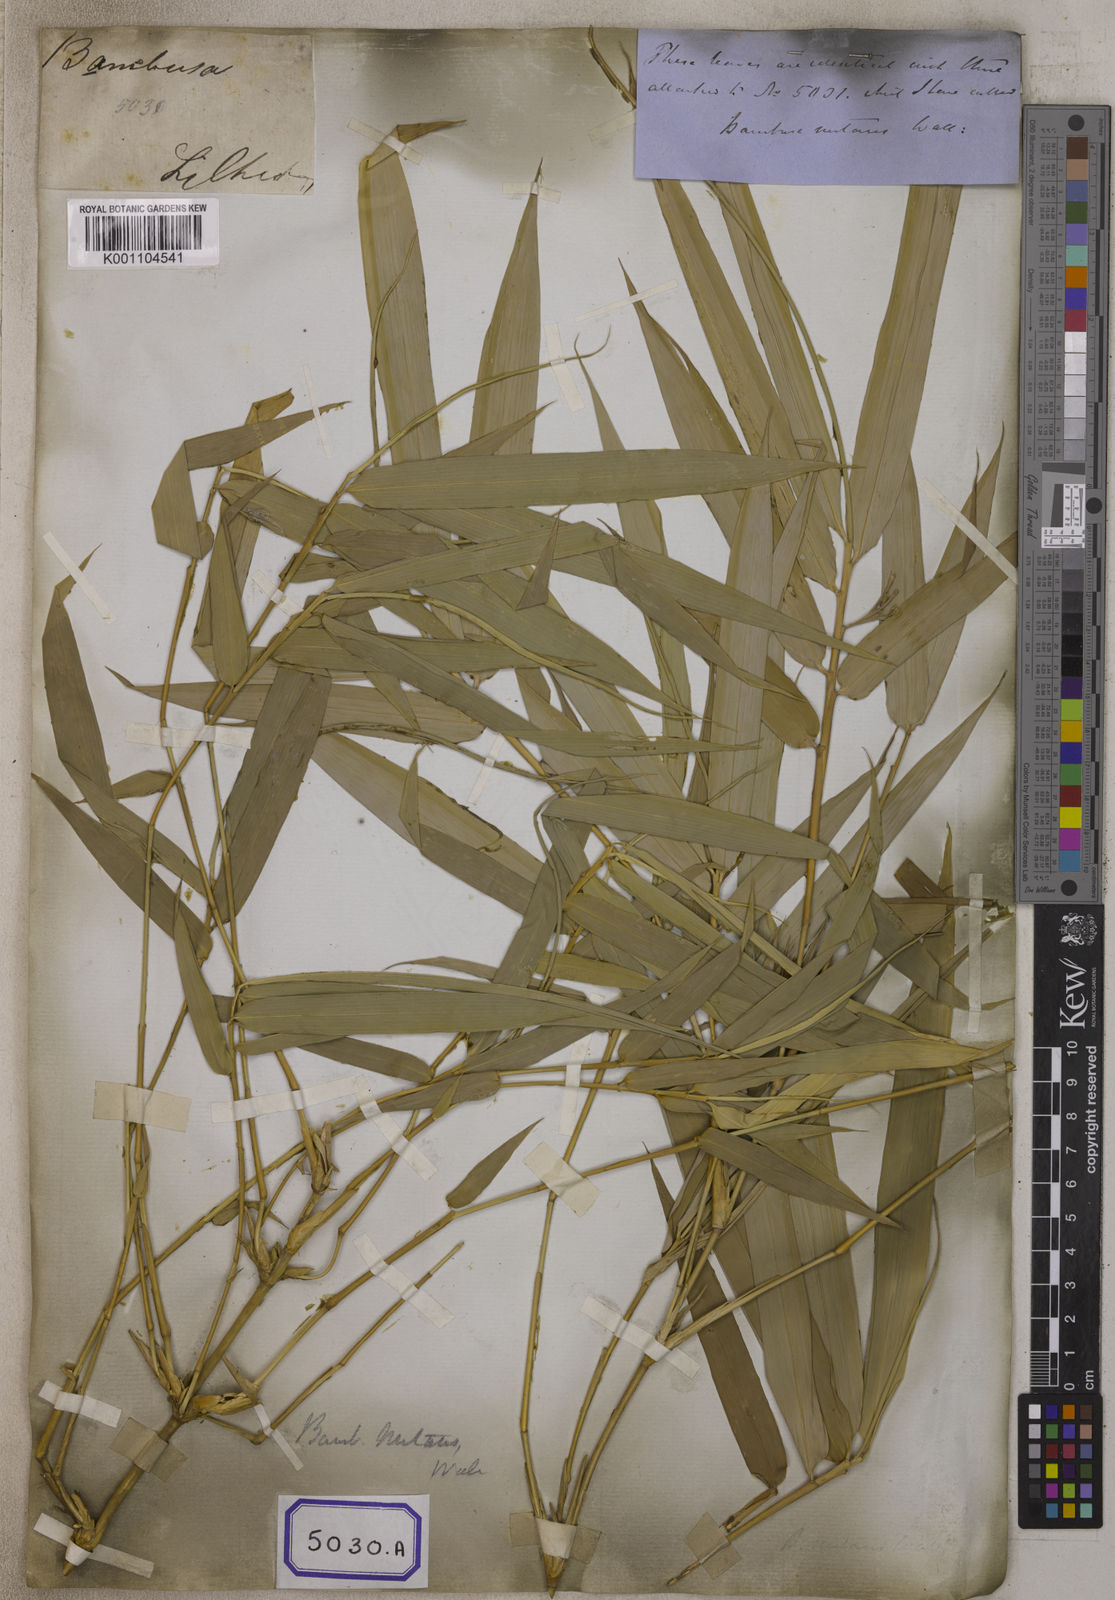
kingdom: Plantae
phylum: Tracheophyta
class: Liliopsida
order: Poales
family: Poaceae
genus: Bambusa
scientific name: Bambusa
